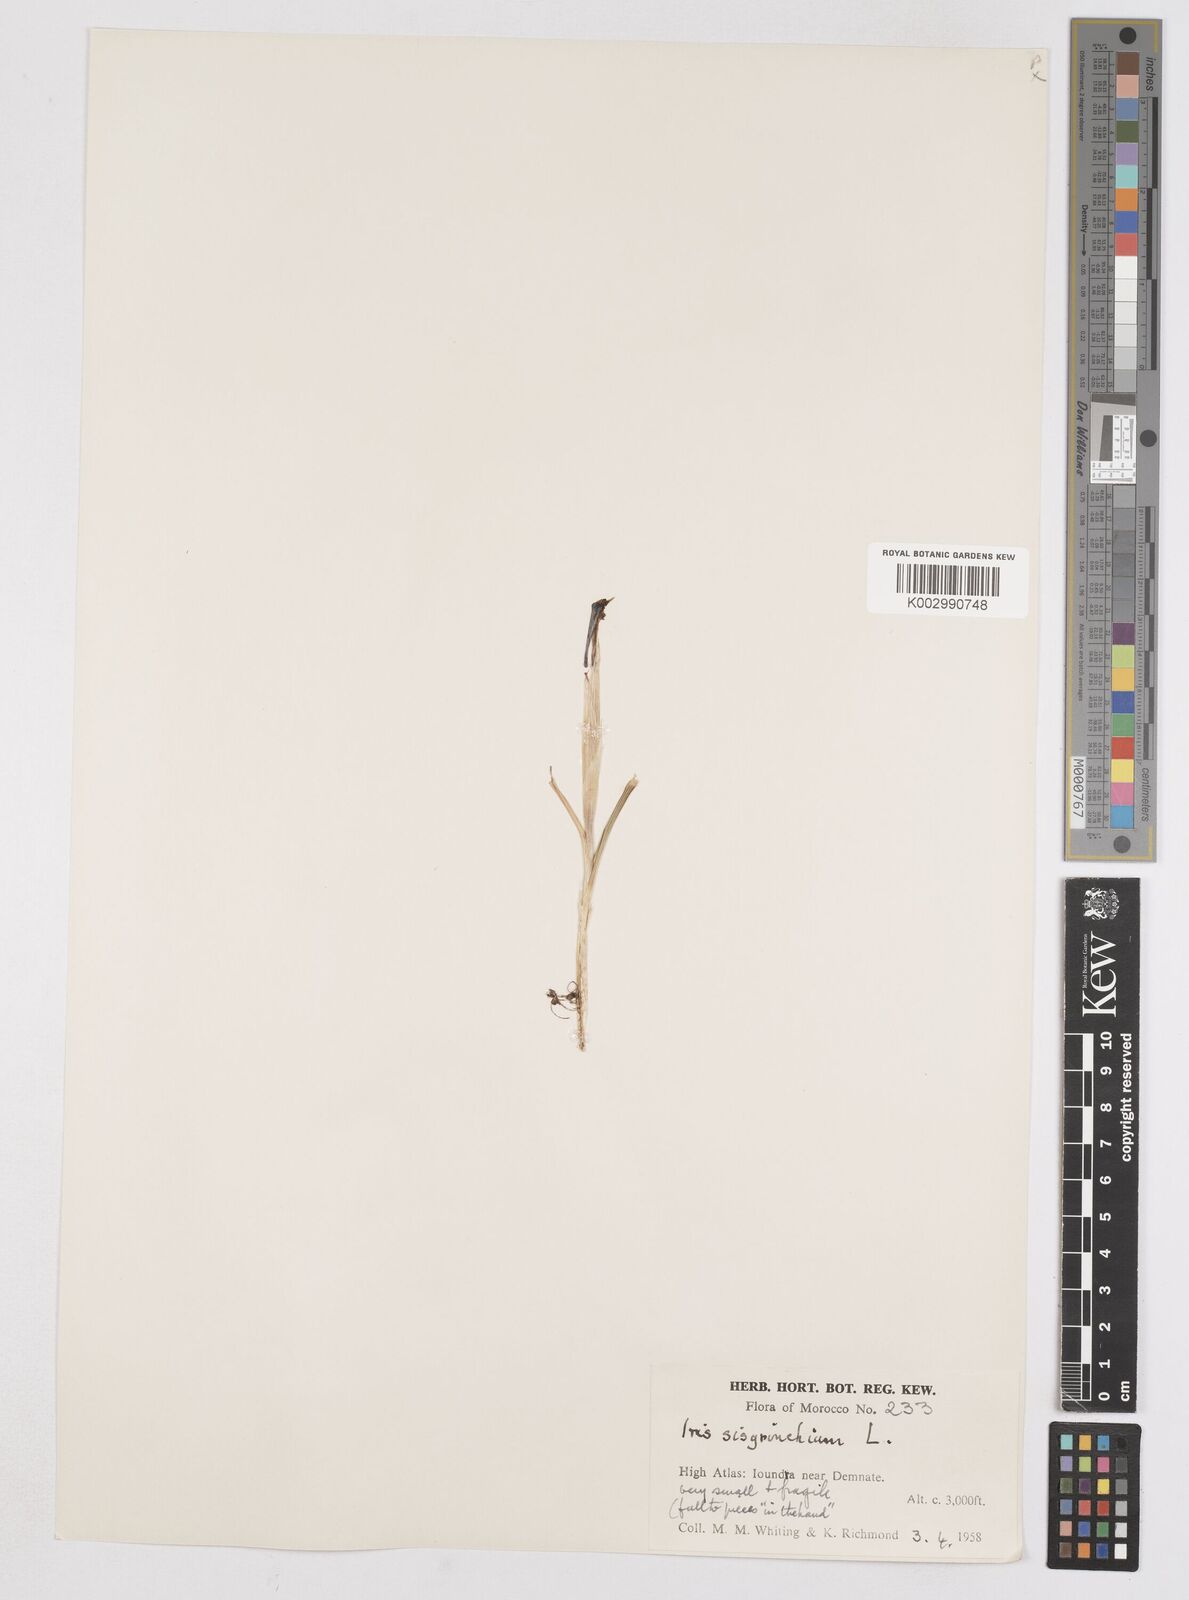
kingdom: Plantae
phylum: Tracheophyta
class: Liliopsida
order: Asparagales
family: Iridaceae
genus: Moraea
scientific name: Moraea sisyrinchium
